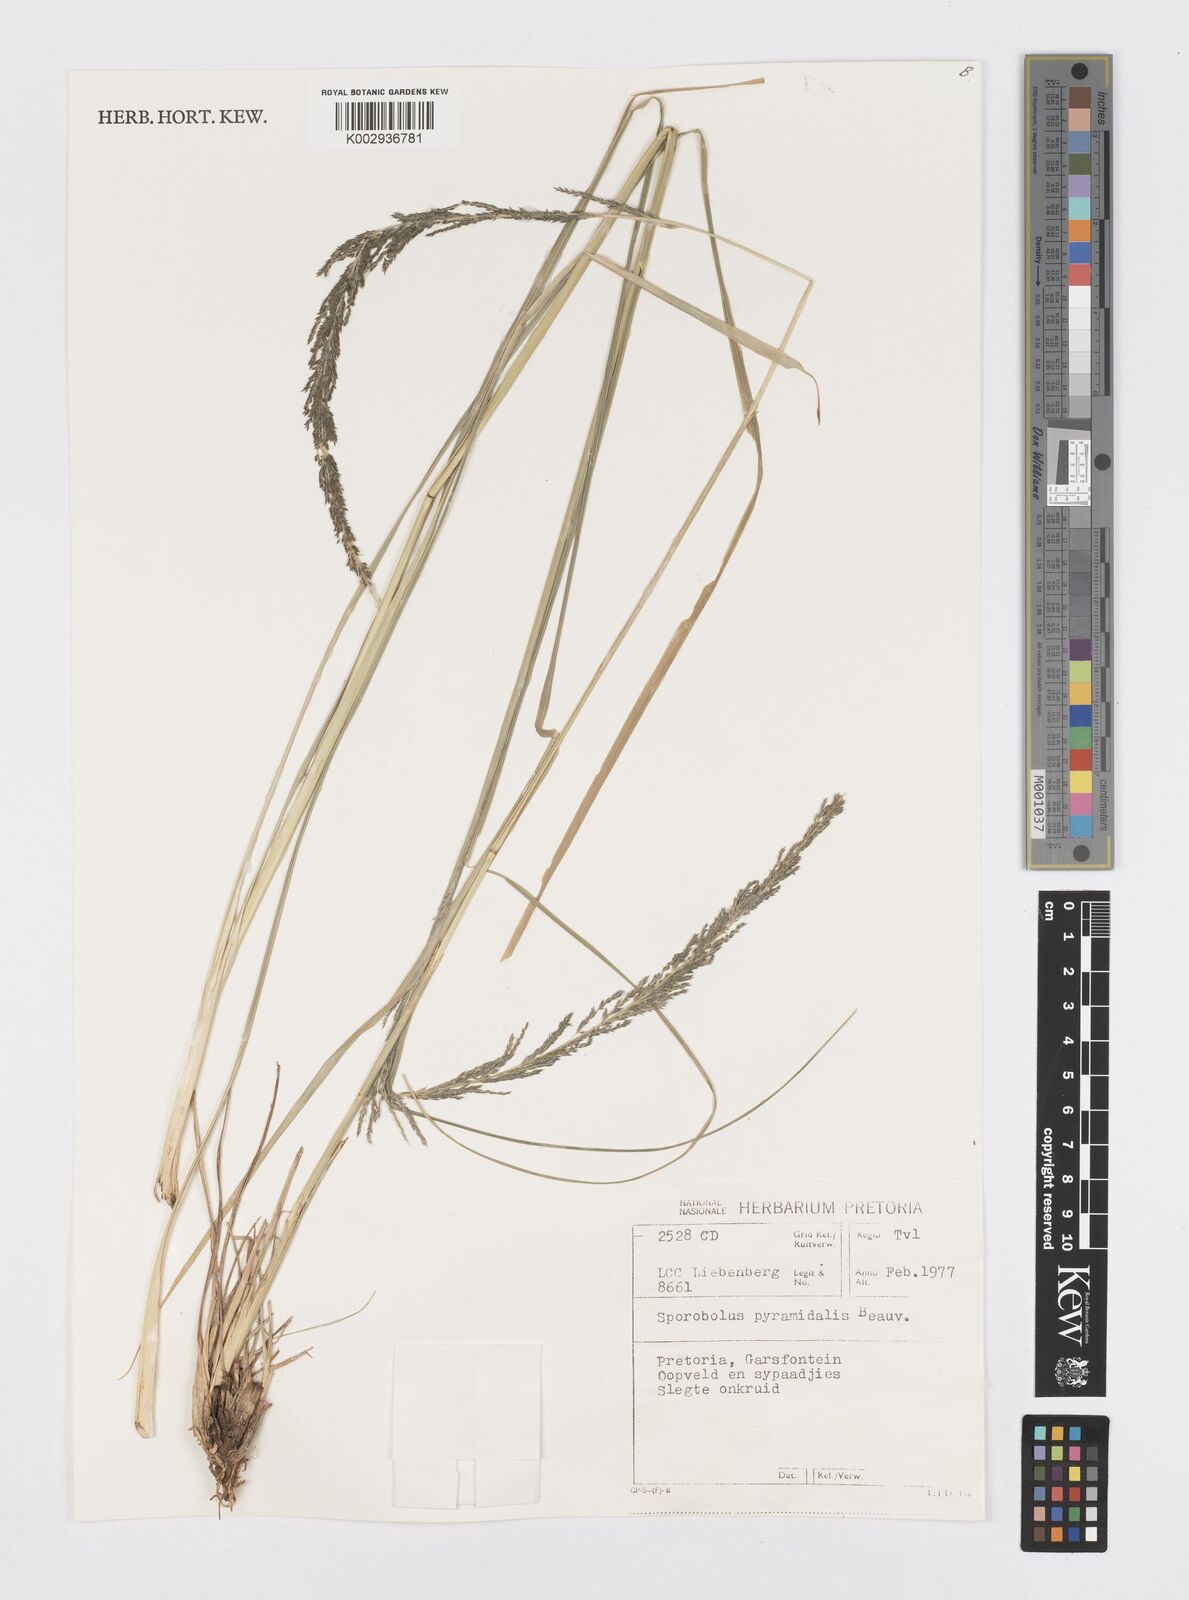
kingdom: Plantae
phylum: Tracheophyta
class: Liliopsida
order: Poales
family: Poaceae
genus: Sporobolus
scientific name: Sporobolus pyramidalis
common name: West indian dropseed
